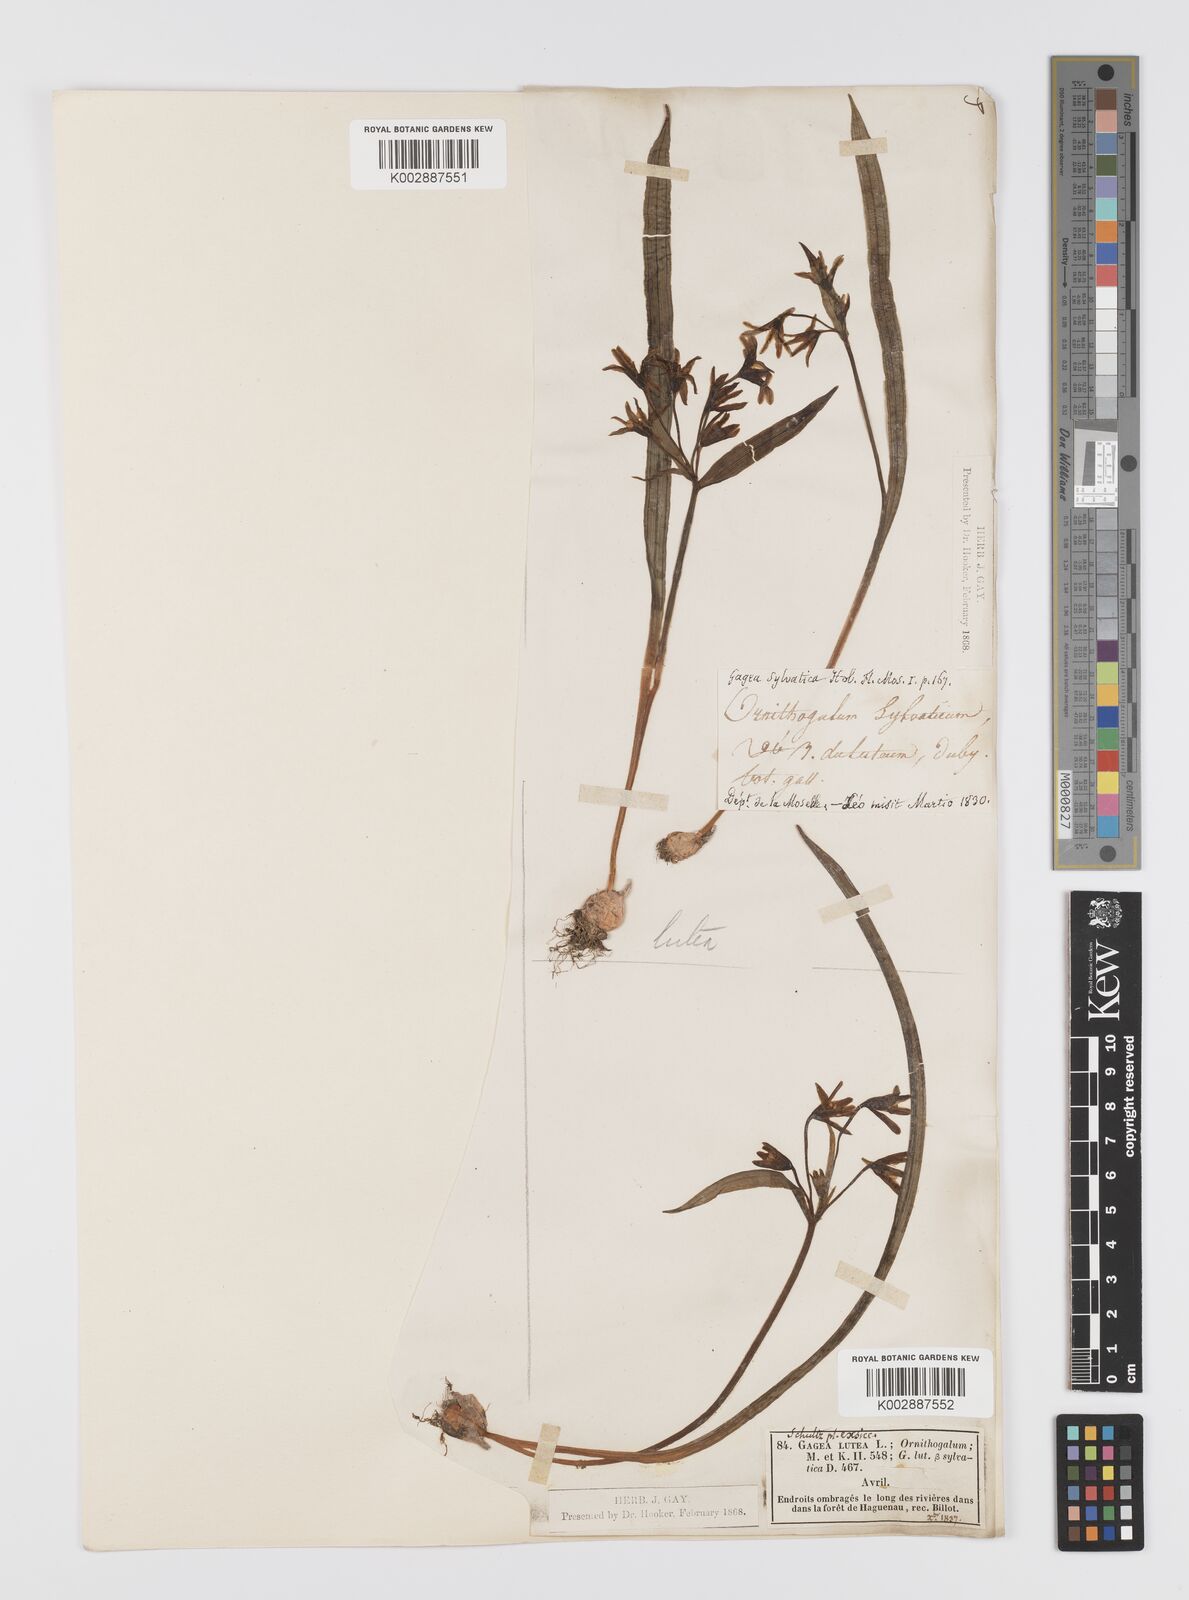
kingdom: Plantae
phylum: Tracheophyta
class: Liliopsida
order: Liliales
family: Liliaceae
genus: Gagea
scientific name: Gagea lutea
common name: Yellow star-of-bethlehem
